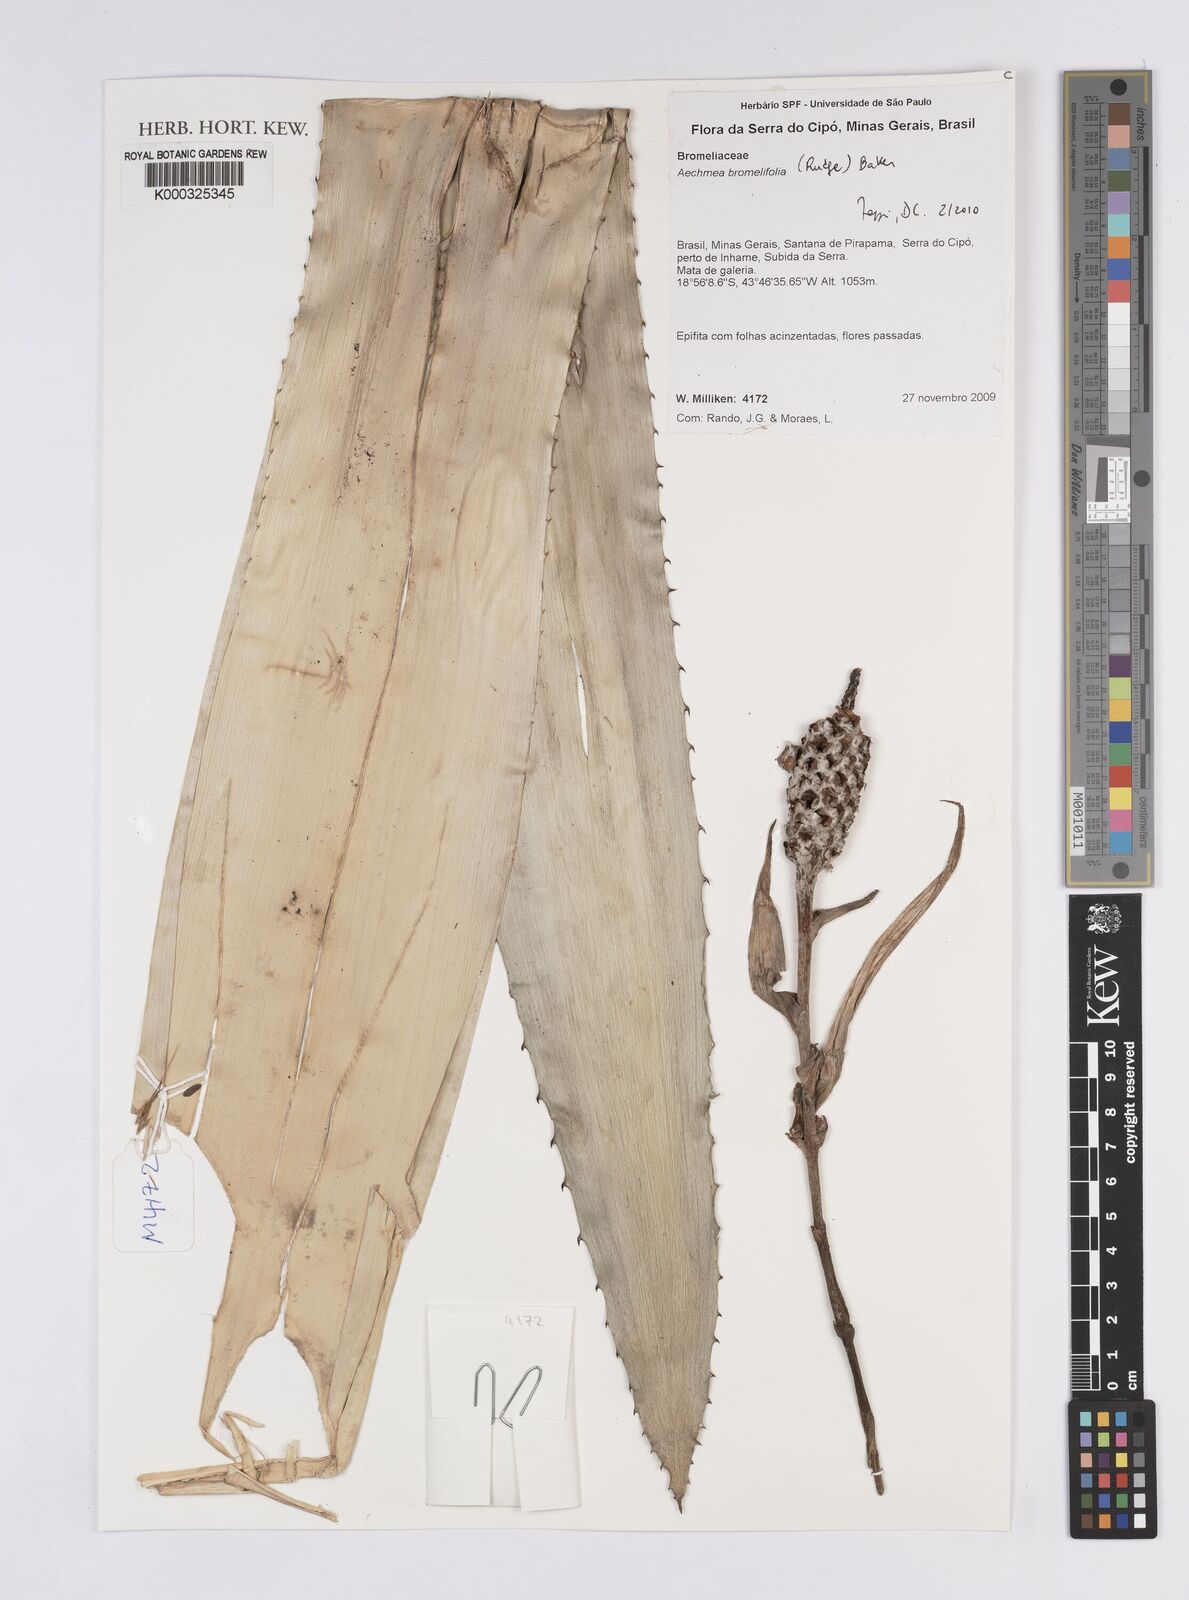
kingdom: Plantae
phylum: Tracheophyta
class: Liliopsida
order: Poales
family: Bromeliaceae
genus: Aechmea
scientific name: Aechmea bromeliifolia
